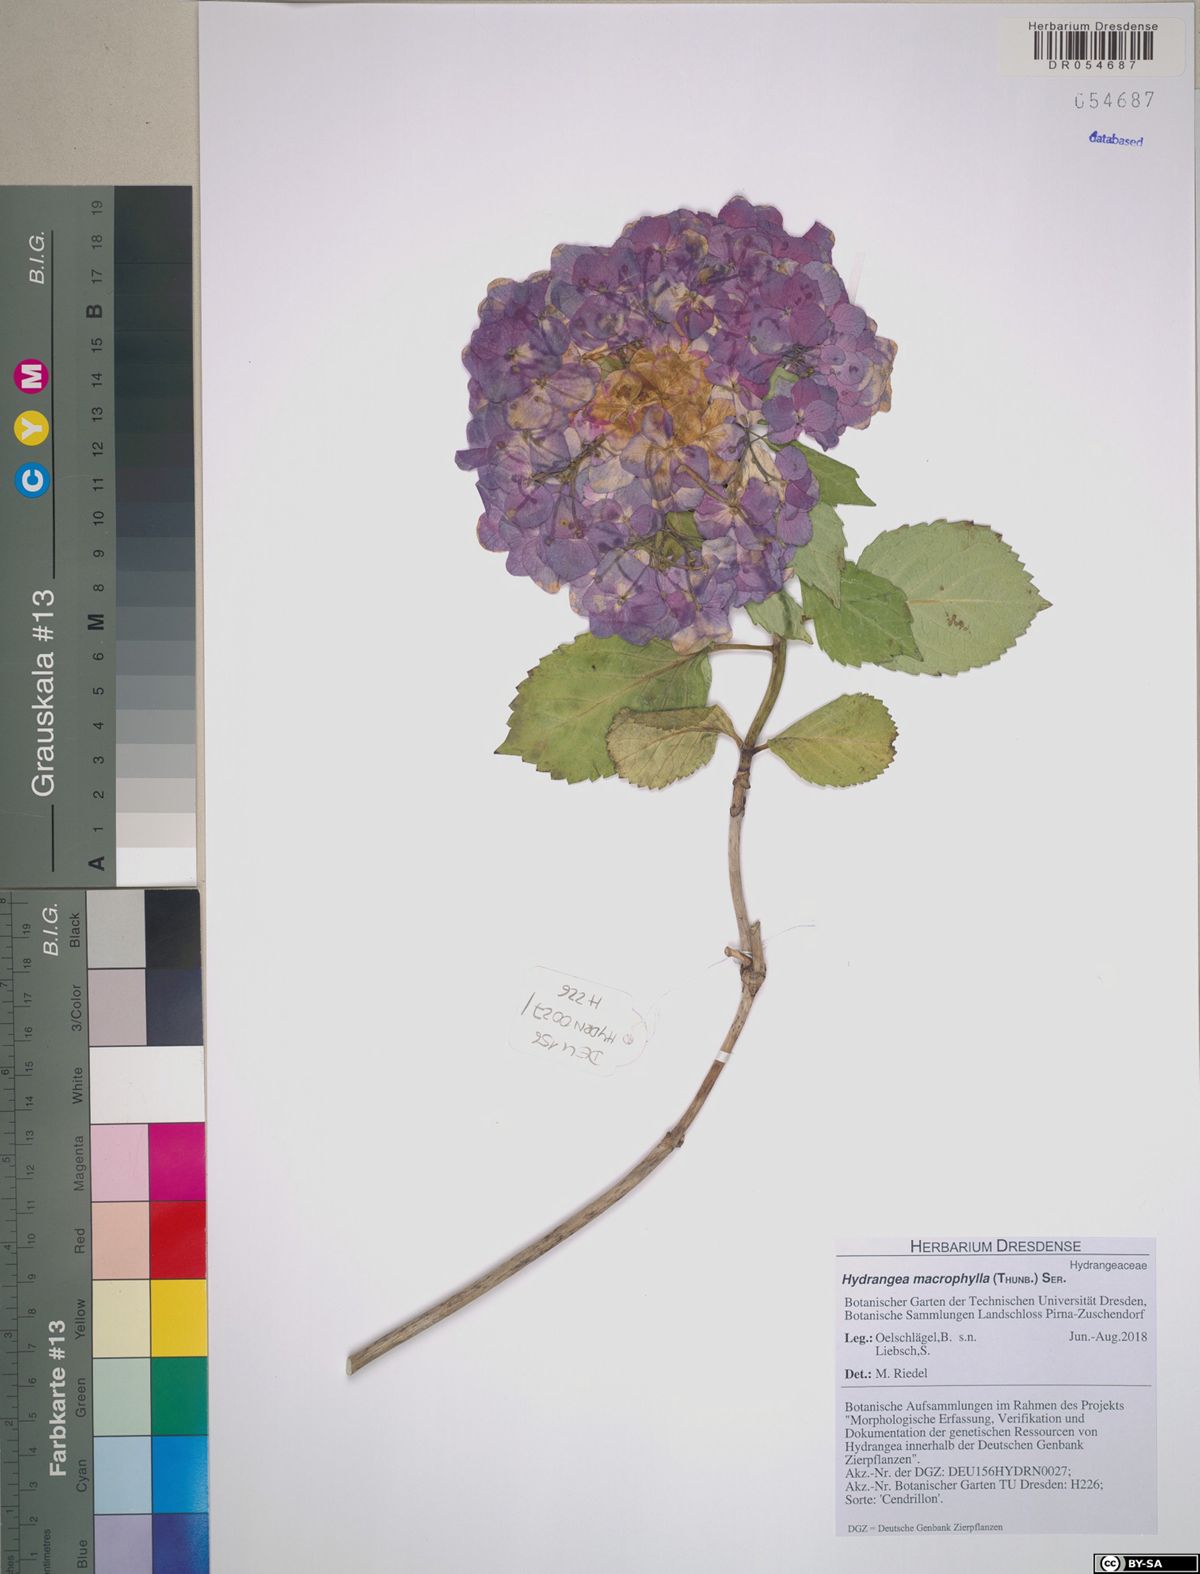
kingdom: Plantae
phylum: Tracheophyta
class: Magnoliopsida
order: Cornales
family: Hydrangeaceae
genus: Hydrangea
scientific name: Hydrangea macrophylla
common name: Hydrangea
